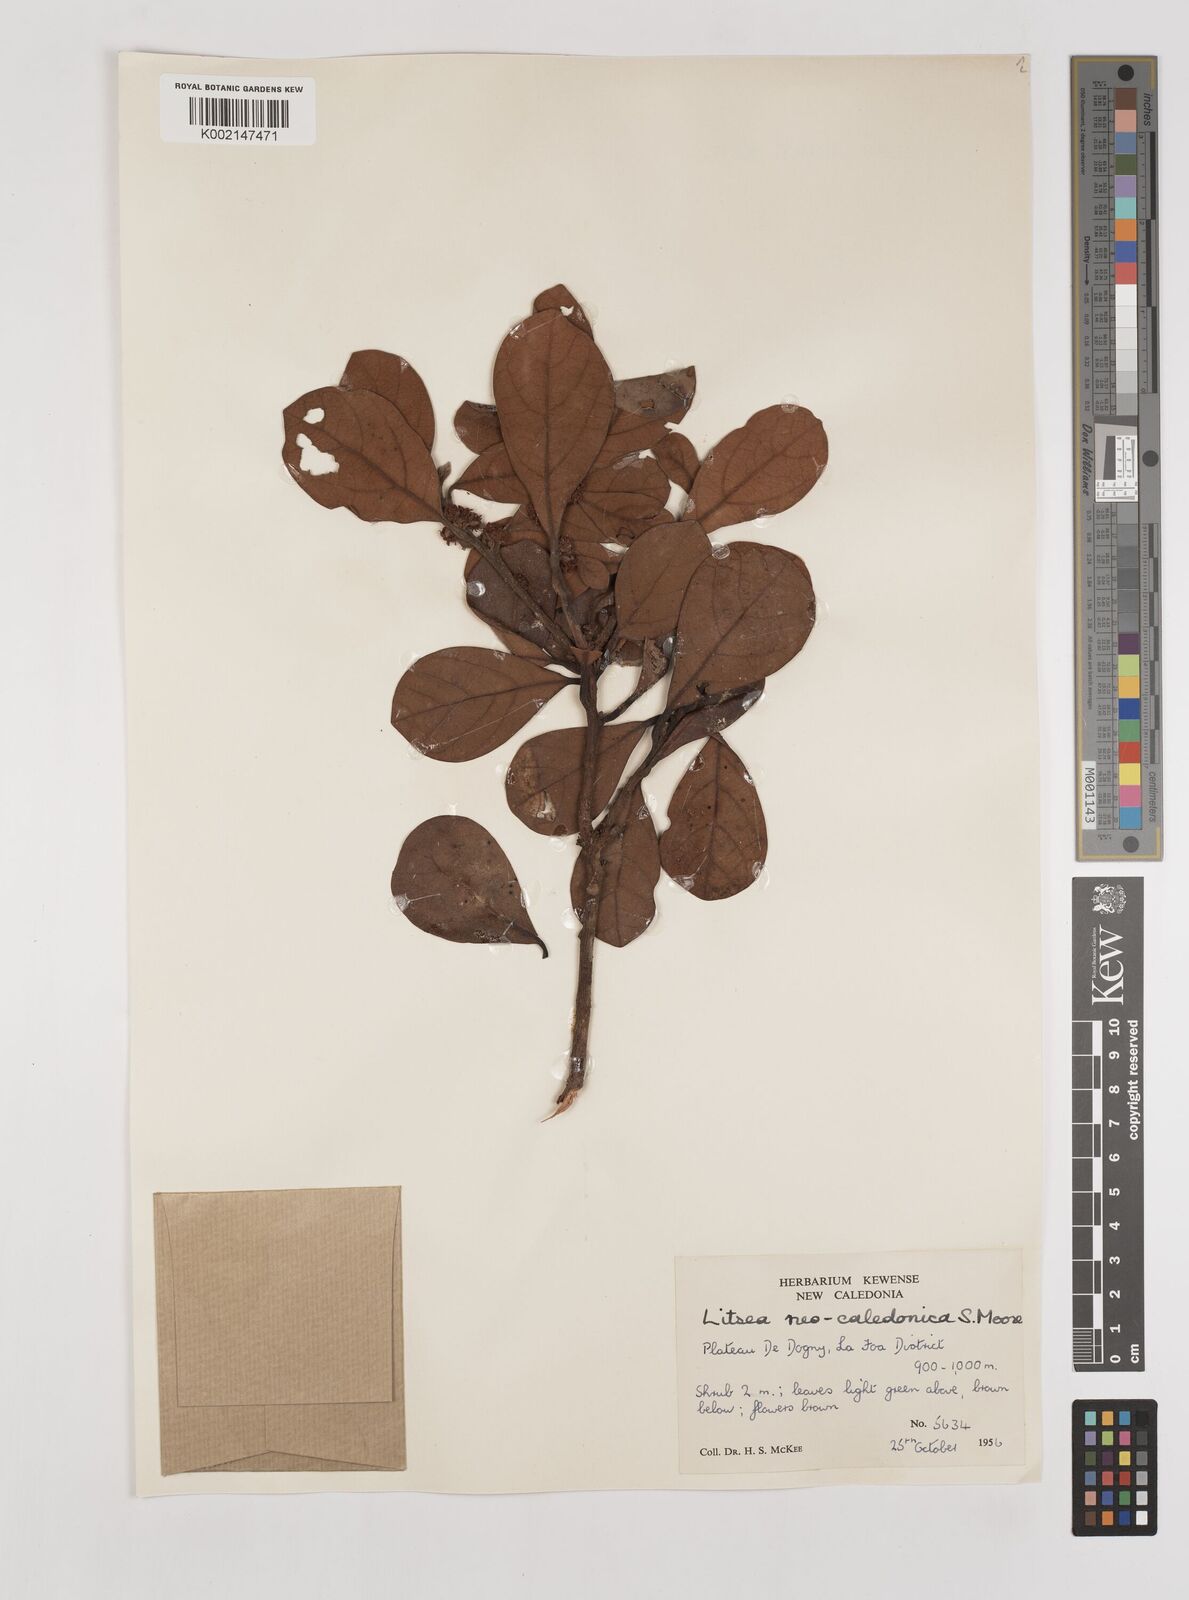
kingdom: Plantae
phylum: Tracheophyta
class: Magnoliopsida
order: Laurales
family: Lauraceae
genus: Litsea
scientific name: Litsea neocaledonica
